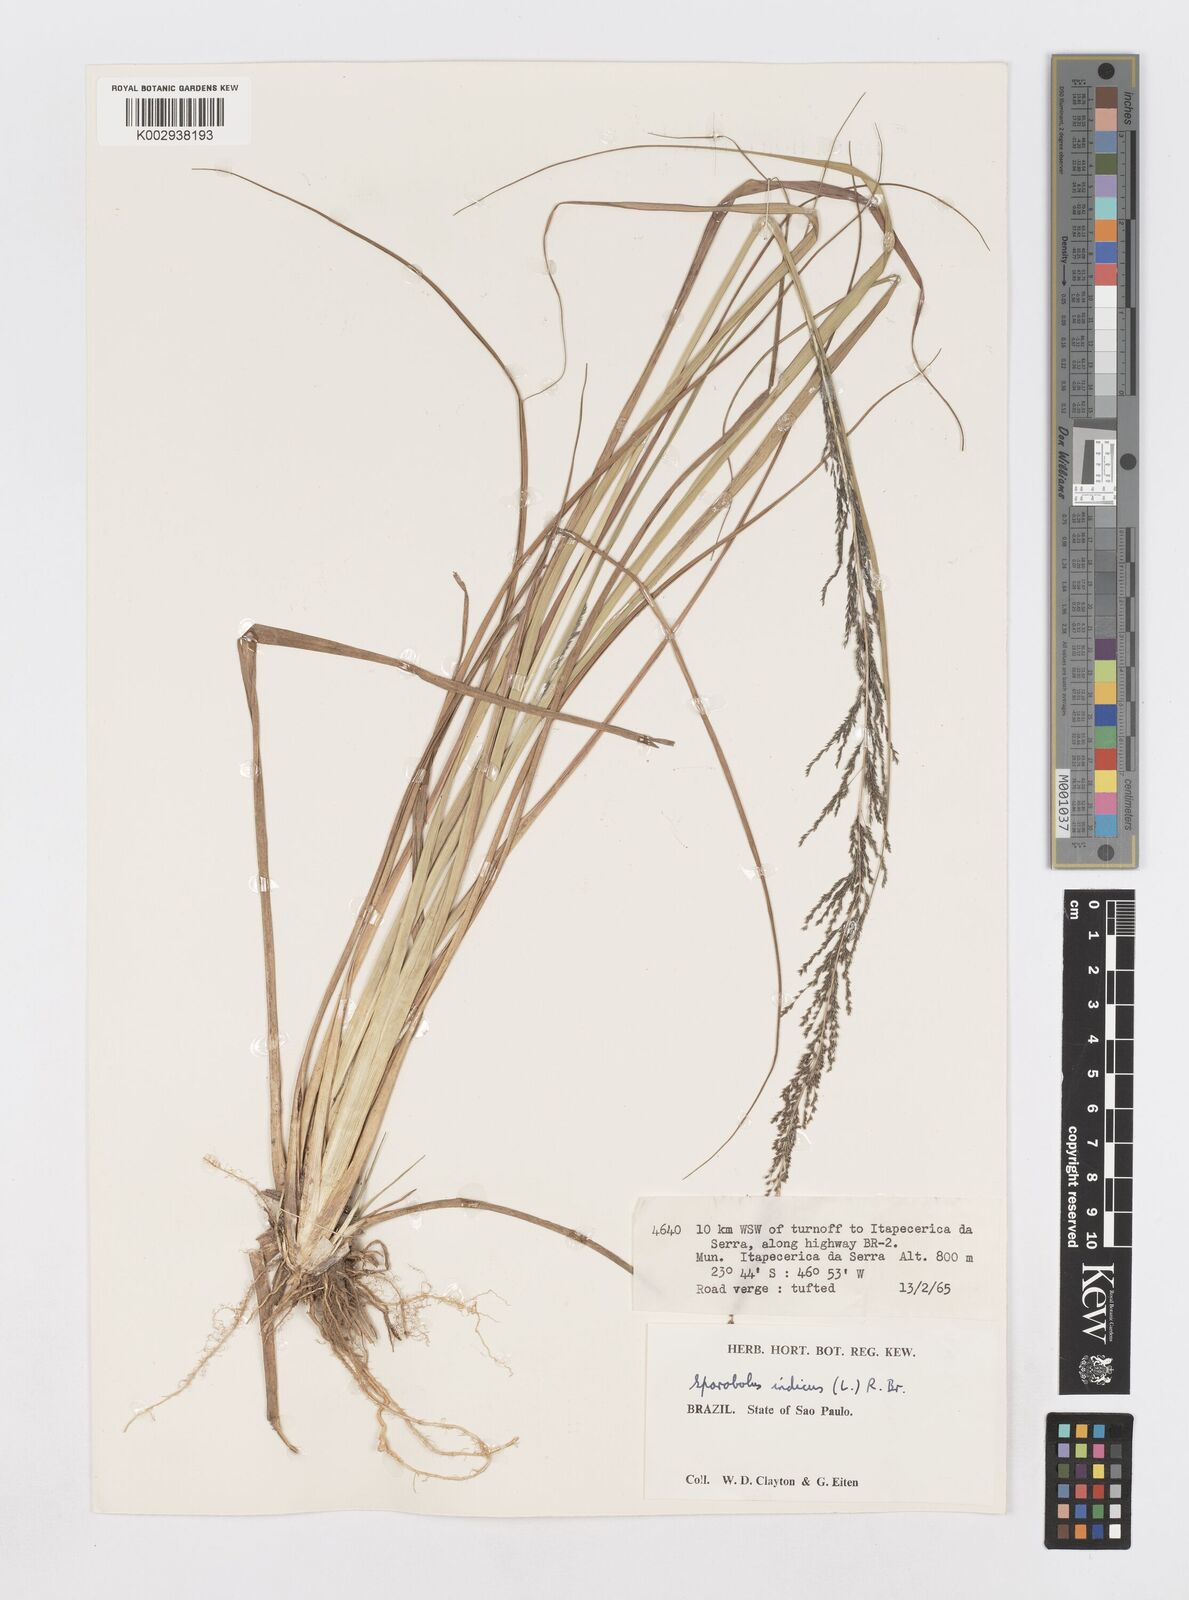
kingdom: Plantae
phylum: Tracheophyta
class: Liliopsida
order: Poales
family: Poaceae
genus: Sporobolus
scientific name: Sporobolus indicus
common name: Smut grass
